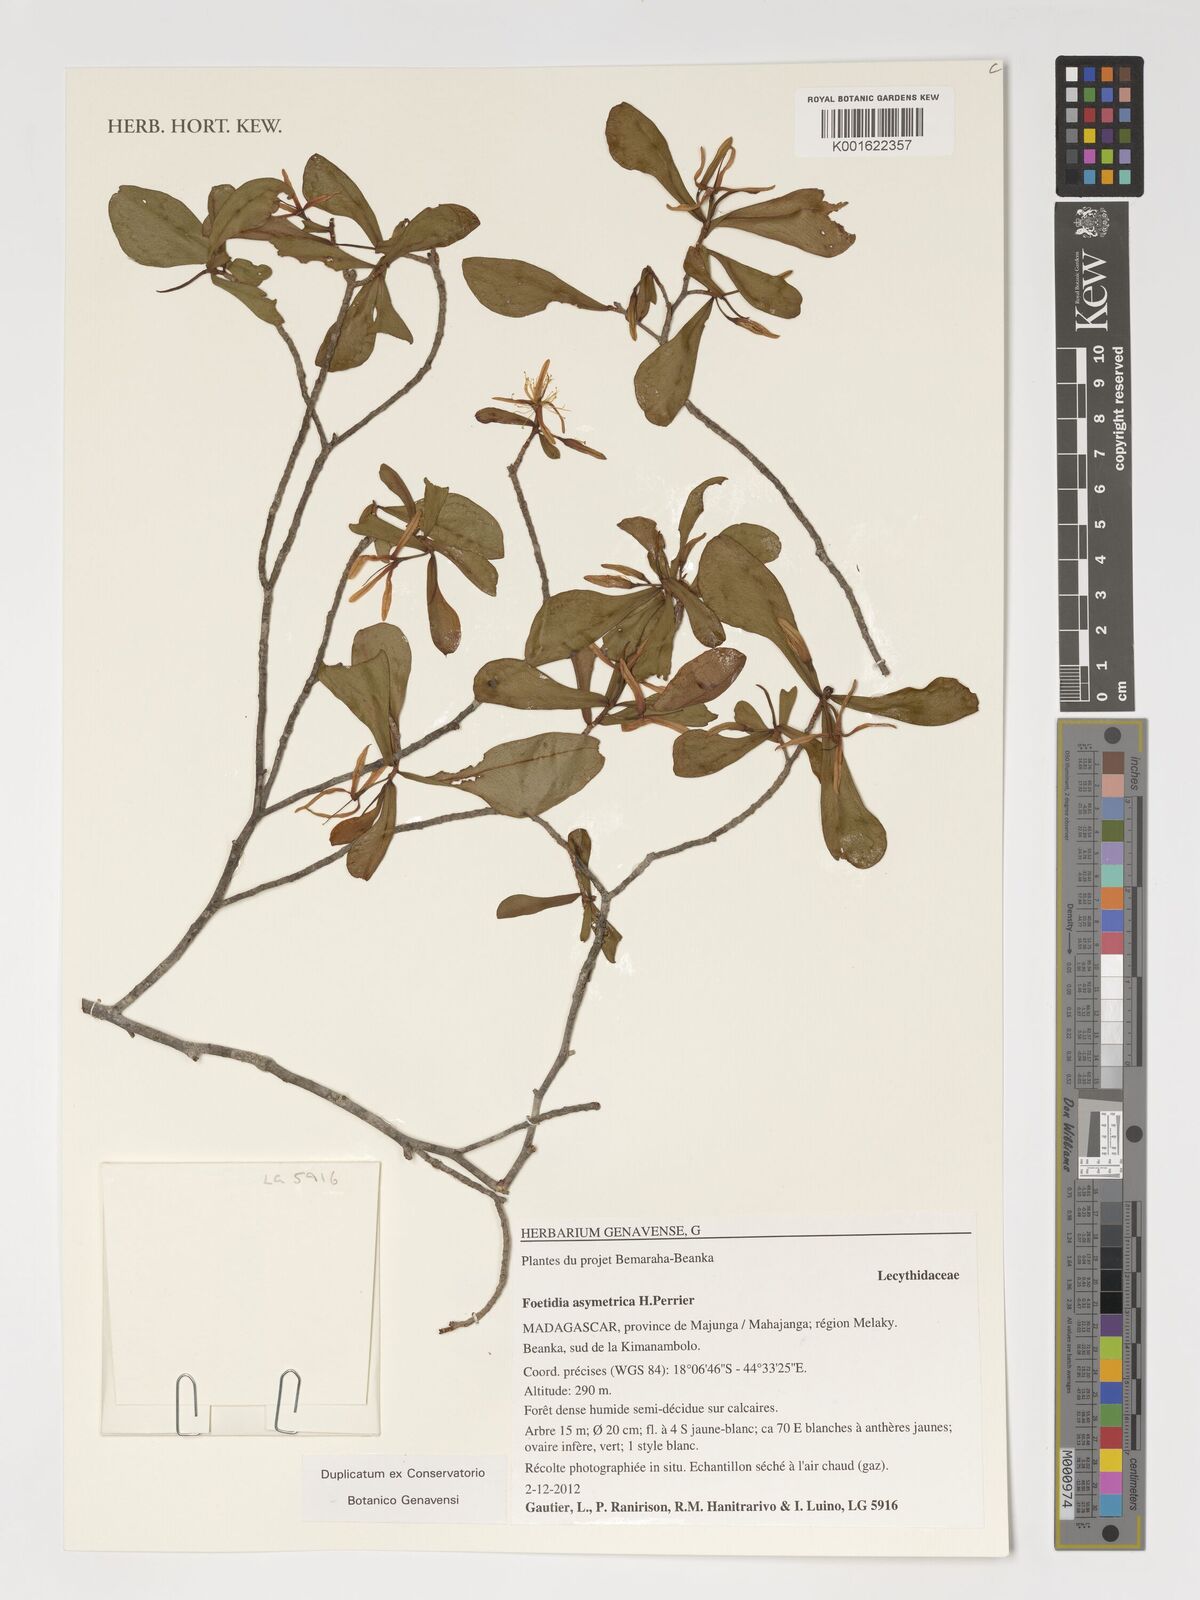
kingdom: Plantae
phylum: Tracheophyta
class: Magnoliopsida
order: Ericales
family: Lecythidaceae
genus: Foetidia
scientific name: Foetidia asymetrica
